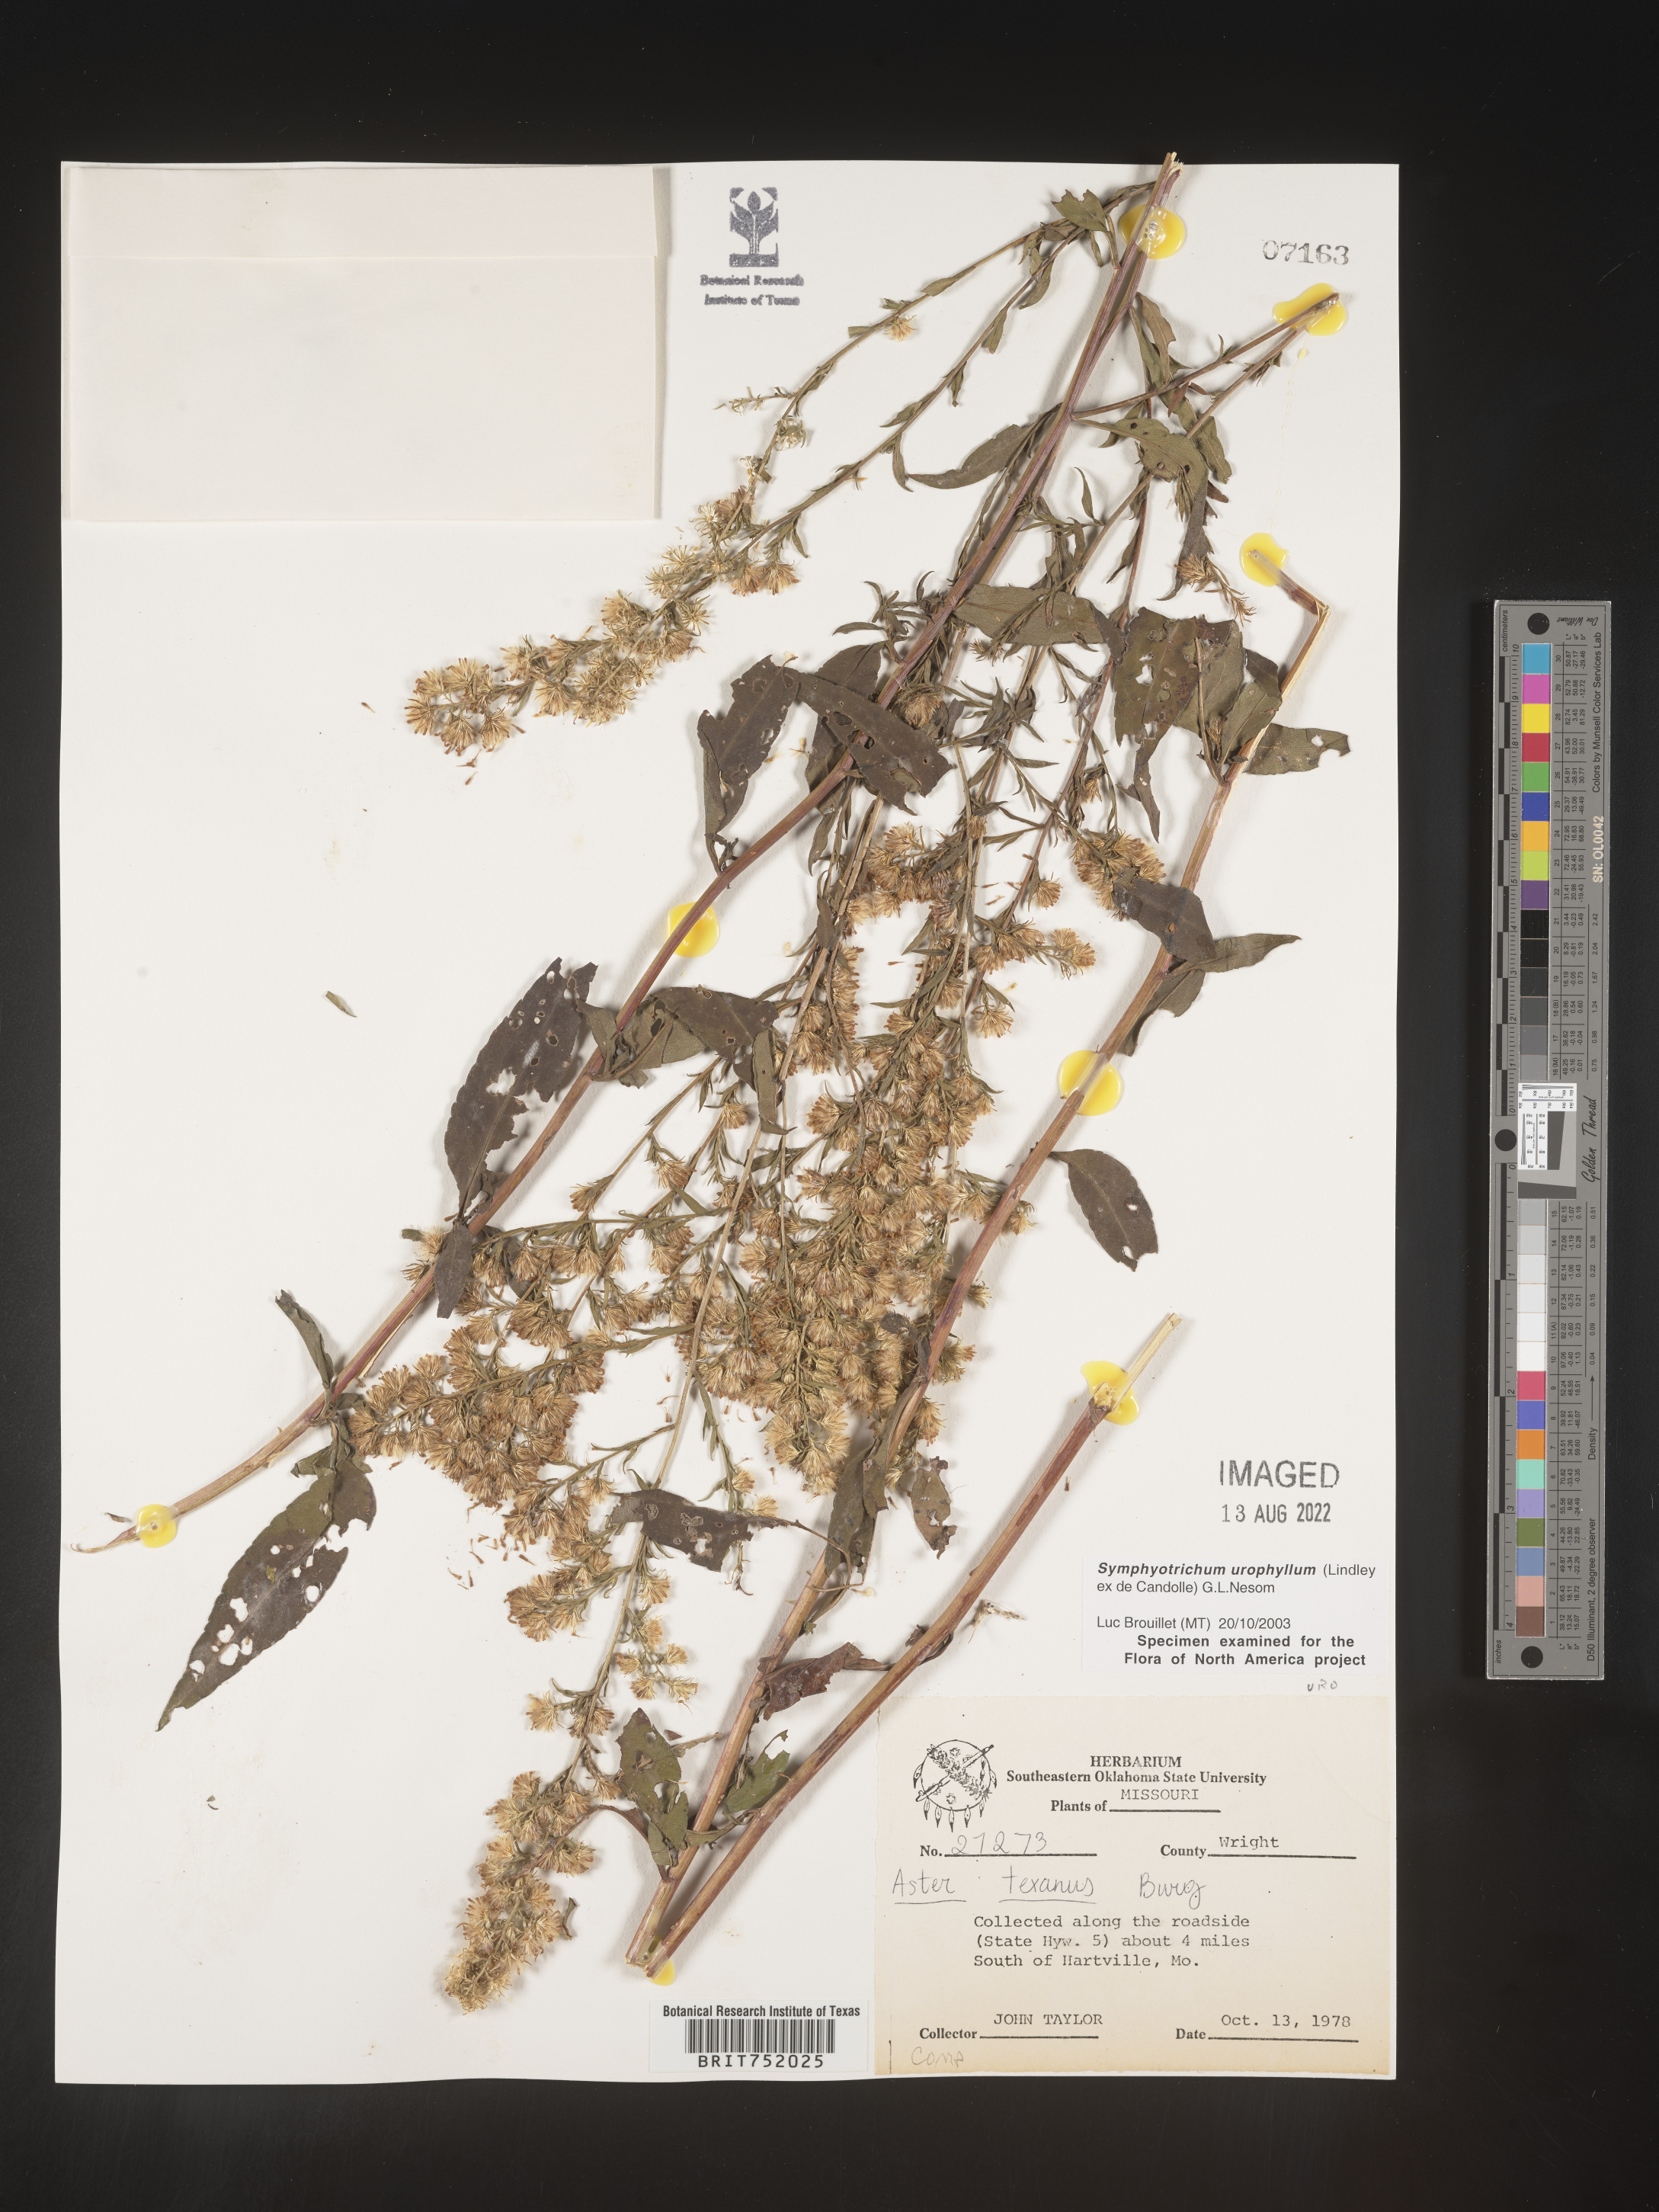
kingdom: Plantae
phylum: Tracheophyta
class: Magnoliopsida
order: Asterales
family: Asteraceae
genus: Symphyotrichum
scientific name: Symphyotrichum drummondii
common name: Drummond's aster
